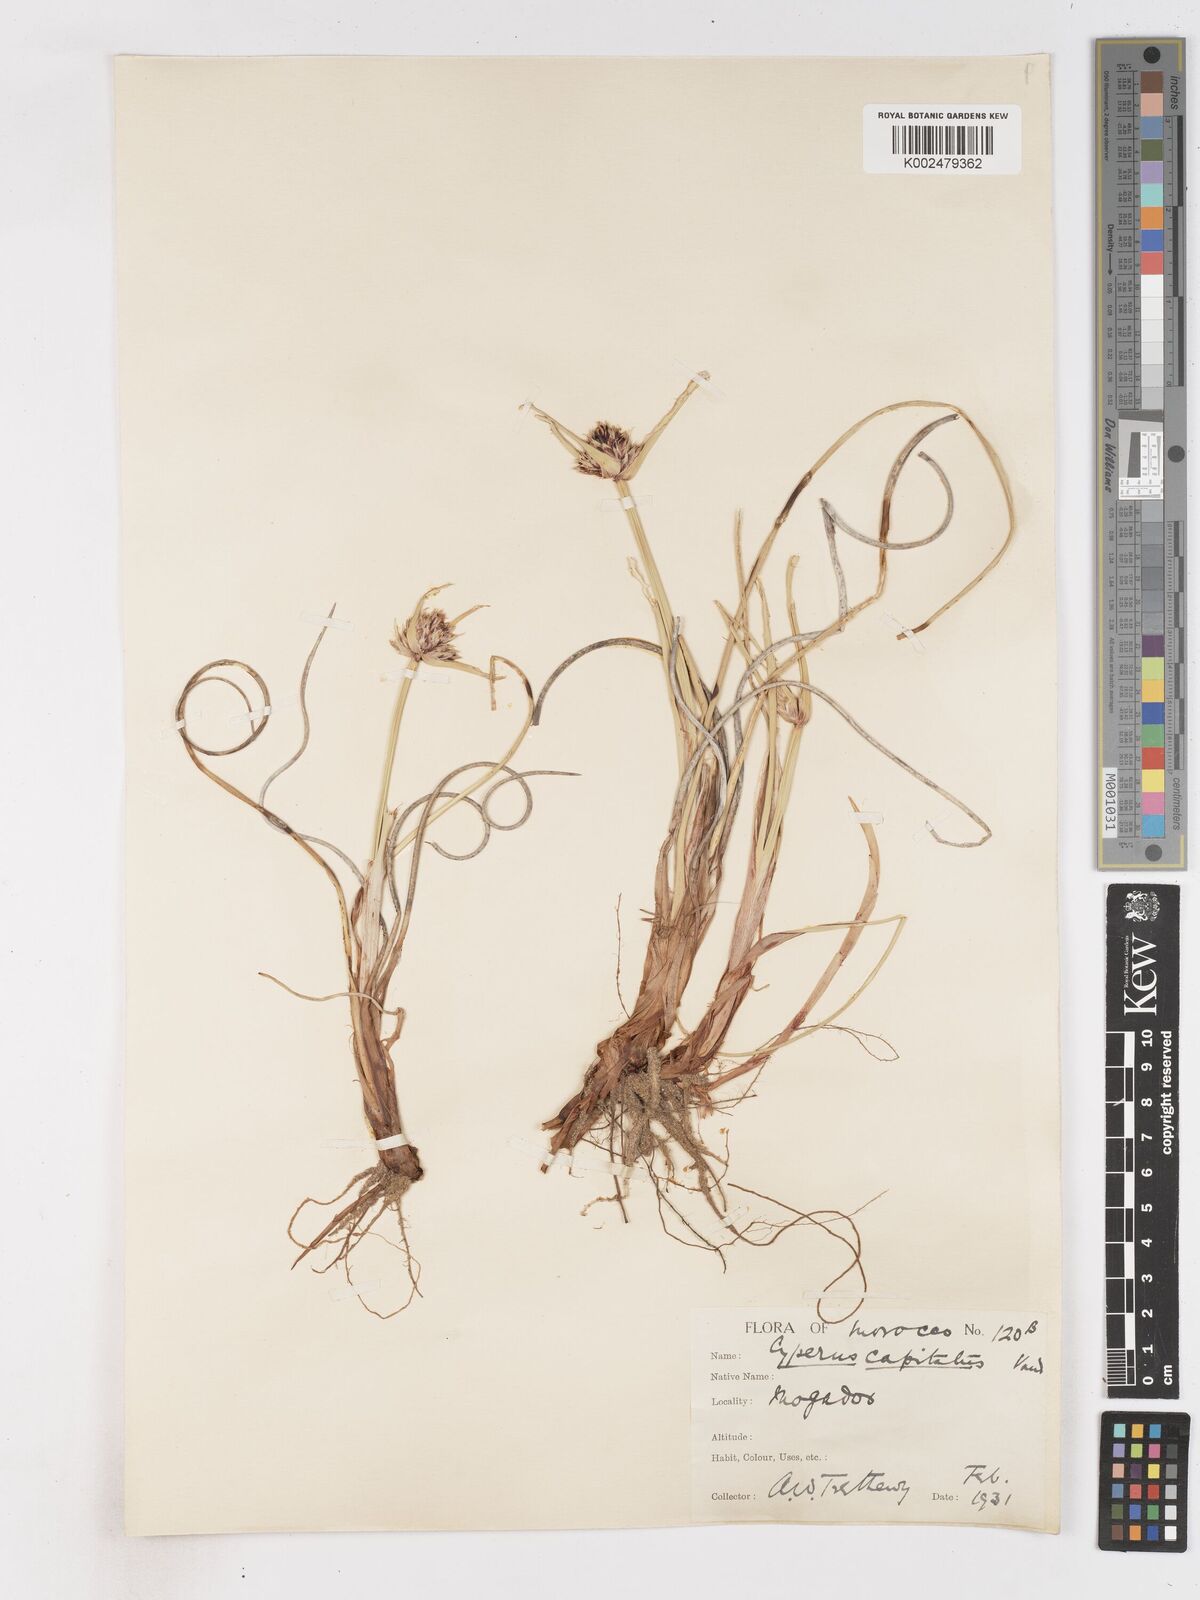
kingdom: Plantae
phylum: Tracheophyta
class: Liliopsida
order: Poales
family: Cyperaceae
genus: Cyperus
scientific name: Cyperus capitatus
